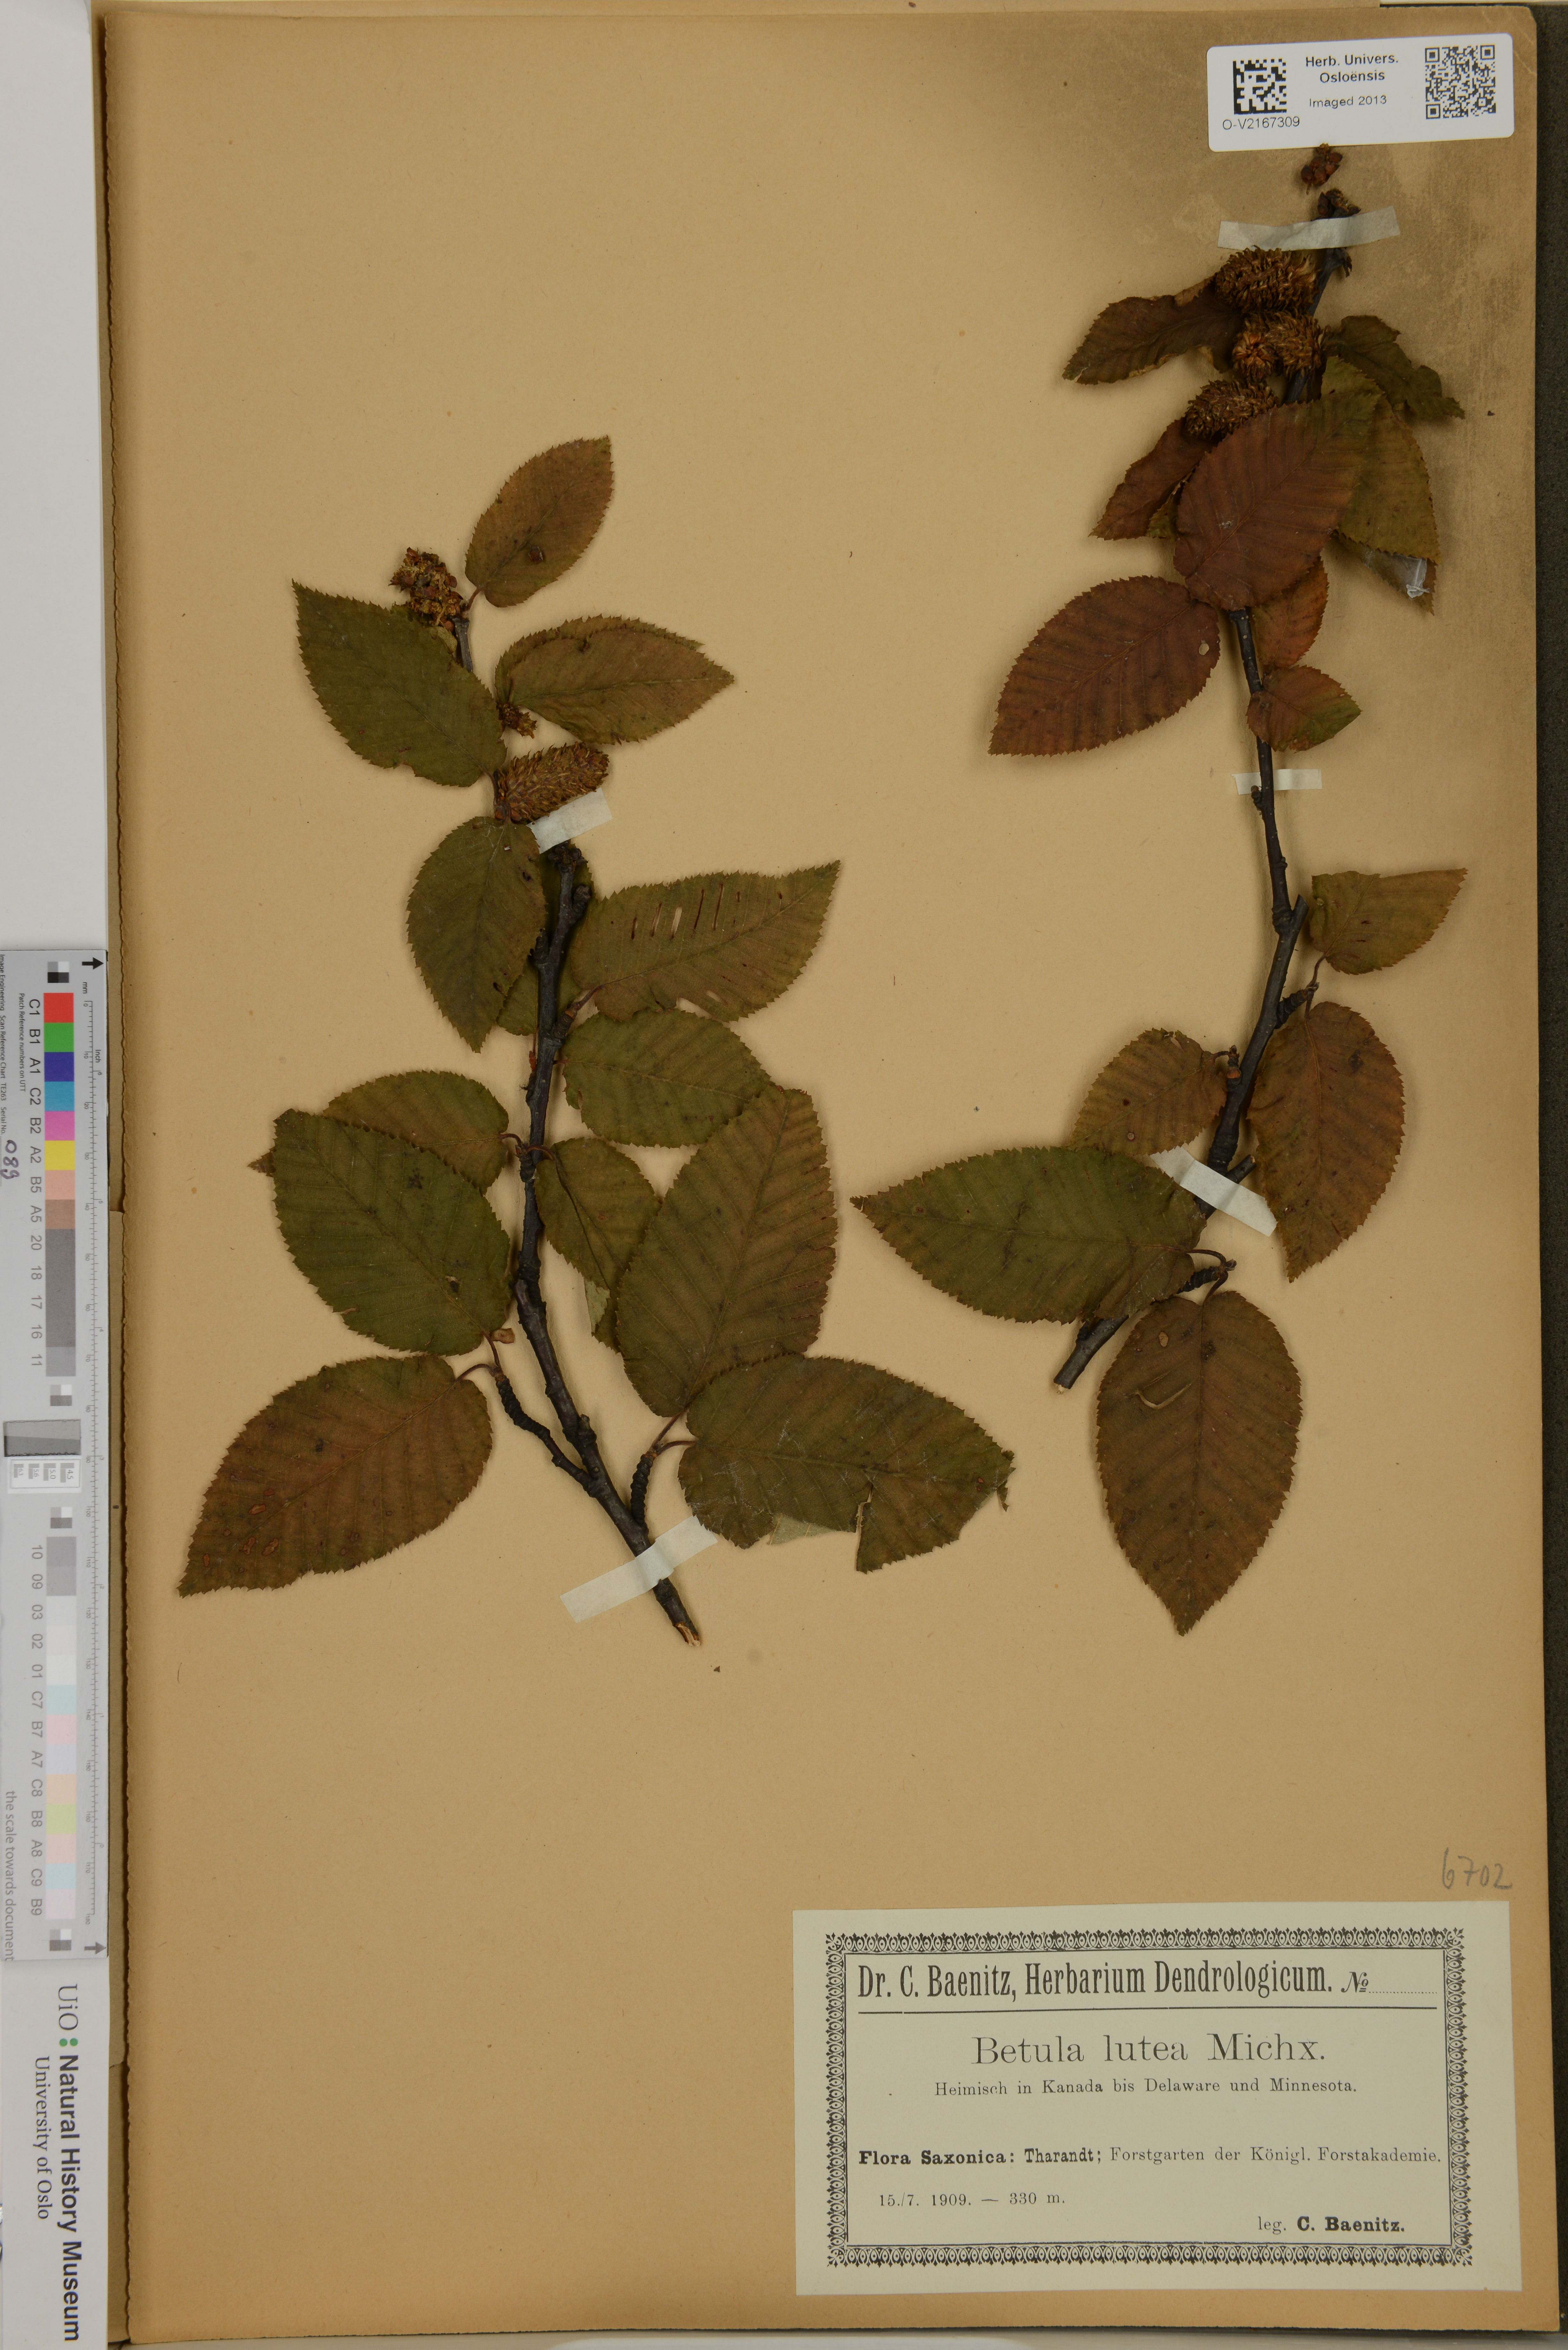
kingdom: Plantae
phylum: Tracheophyta
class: Magnoliopsida
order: Fagales
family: Betulaceae
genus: Betula
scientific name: Betula alleghaniensis
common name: Yellow birch
